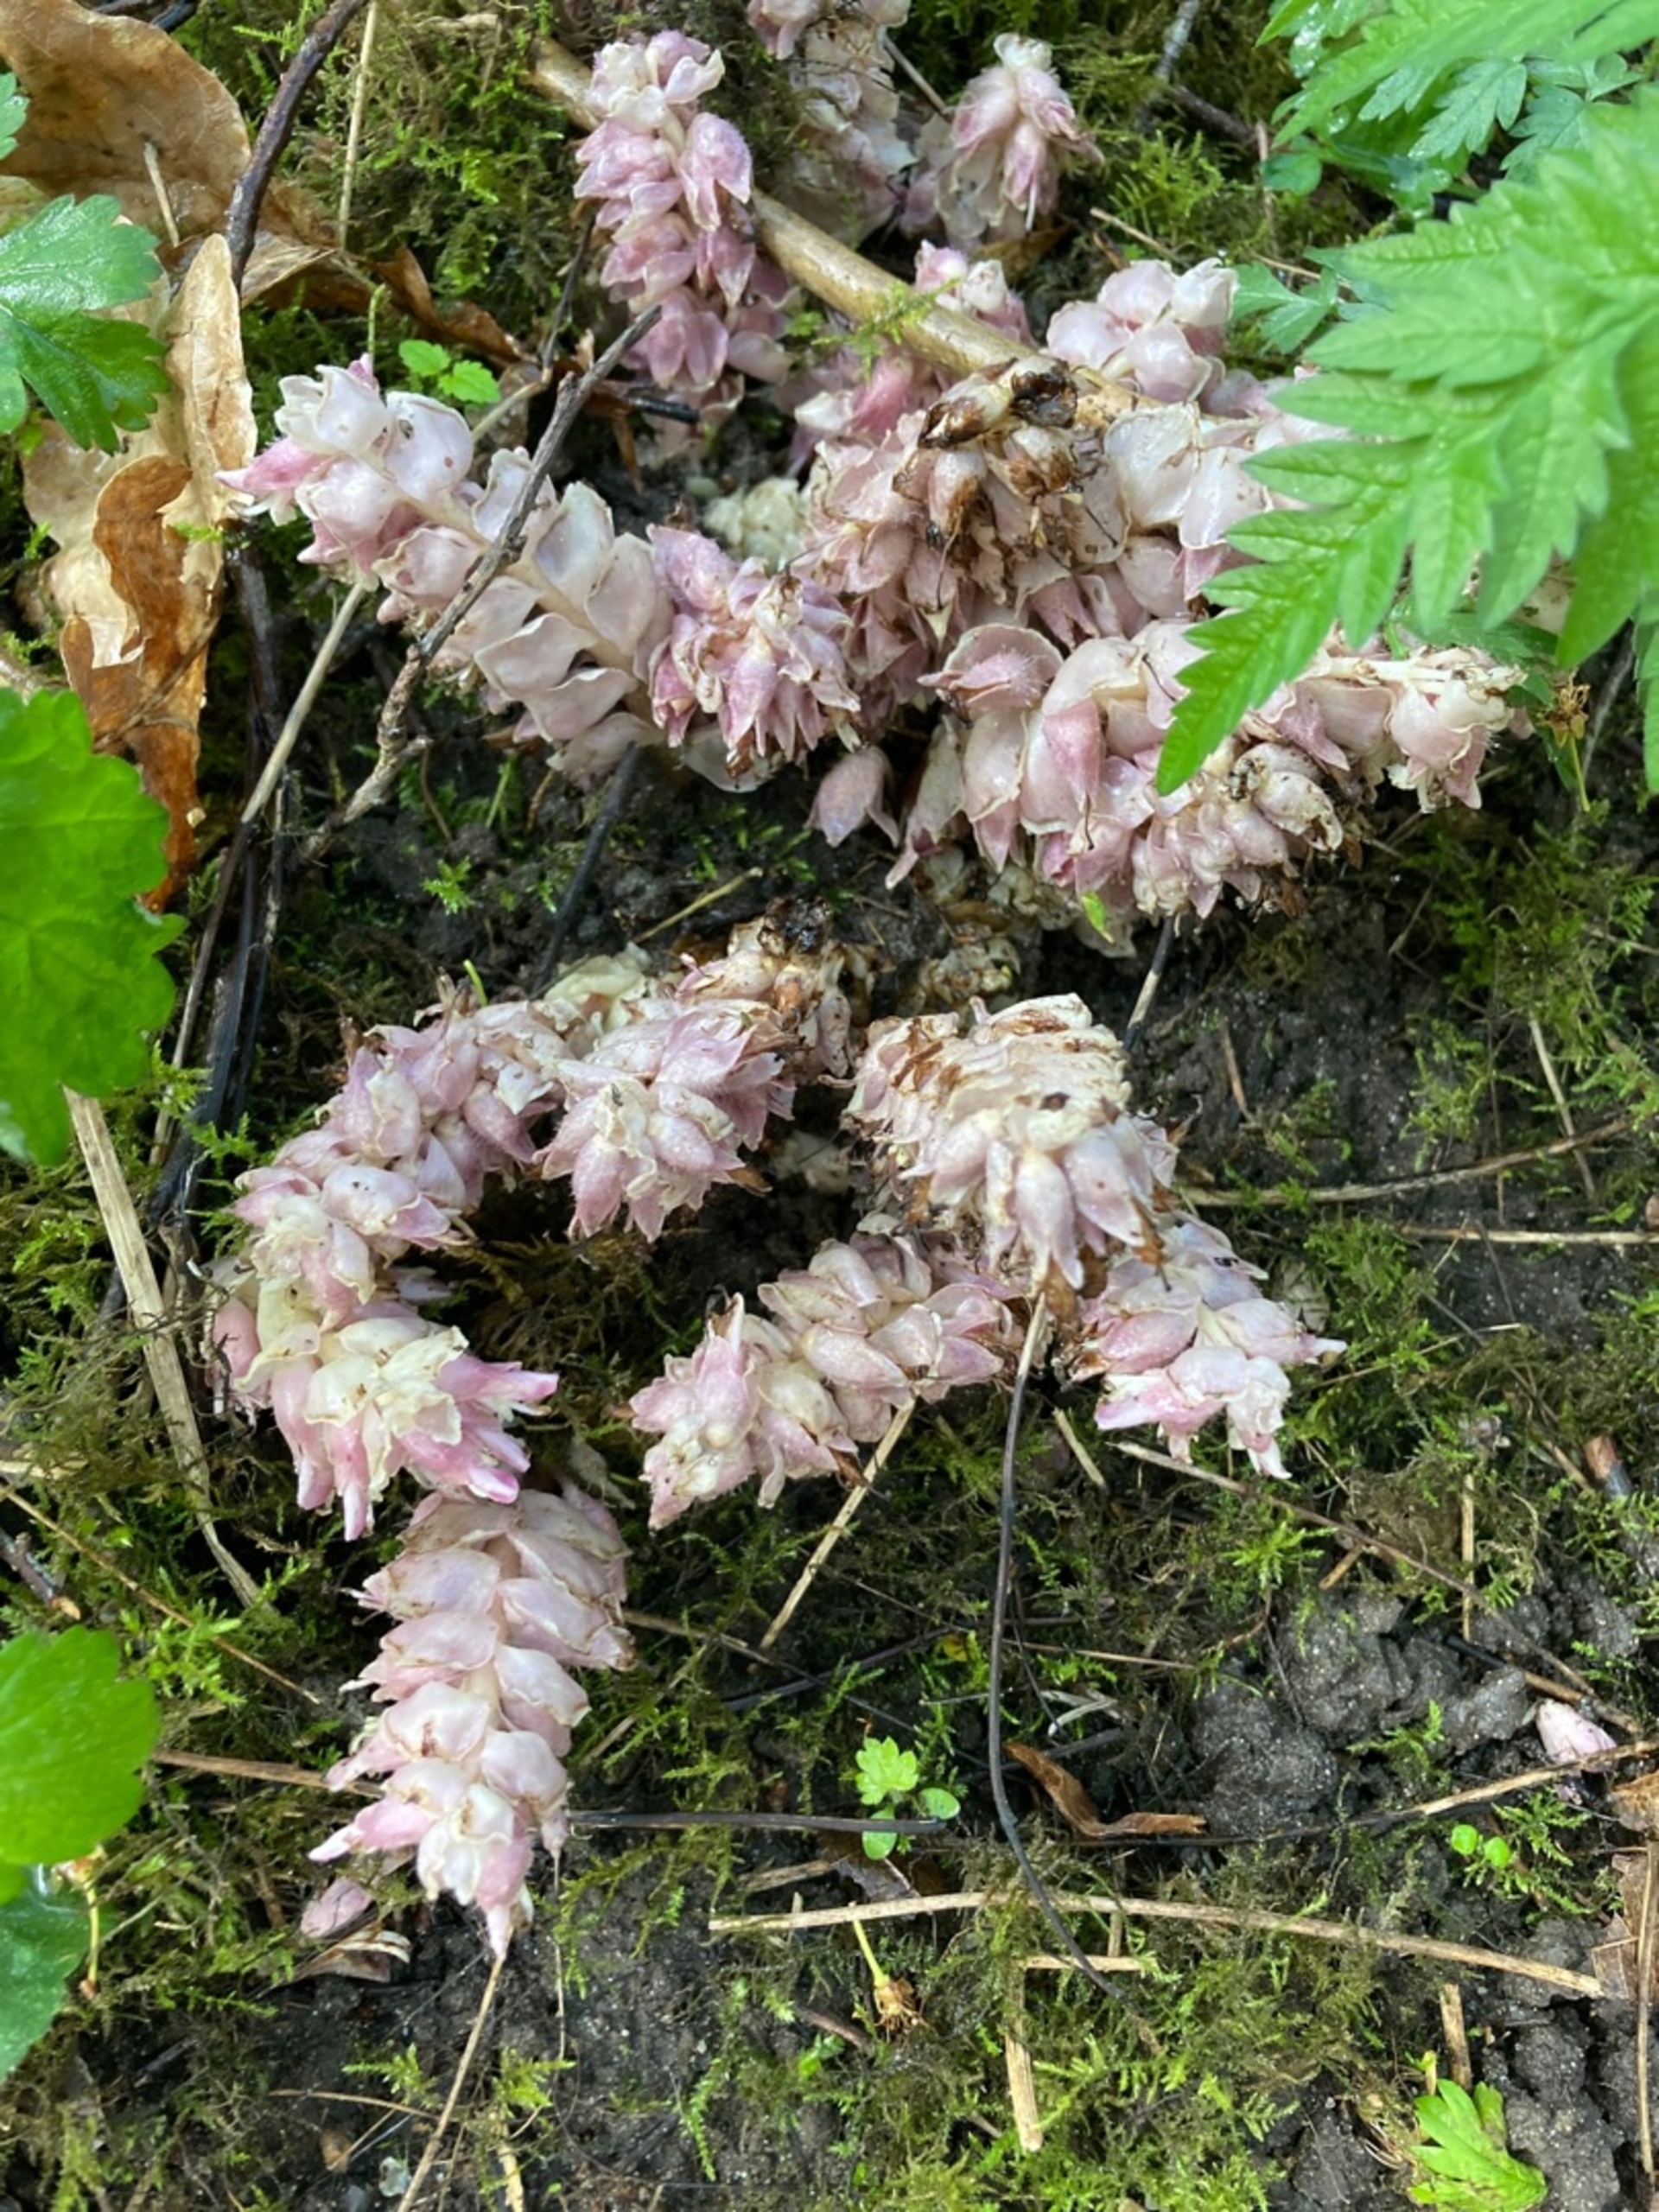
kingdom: Plantae
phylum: Tracheophyta
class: Magnoliopsida
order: Lamiales
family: Orobanchaceae
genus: Lathraea
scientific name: Lathraea squamaria
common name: Skælrod
